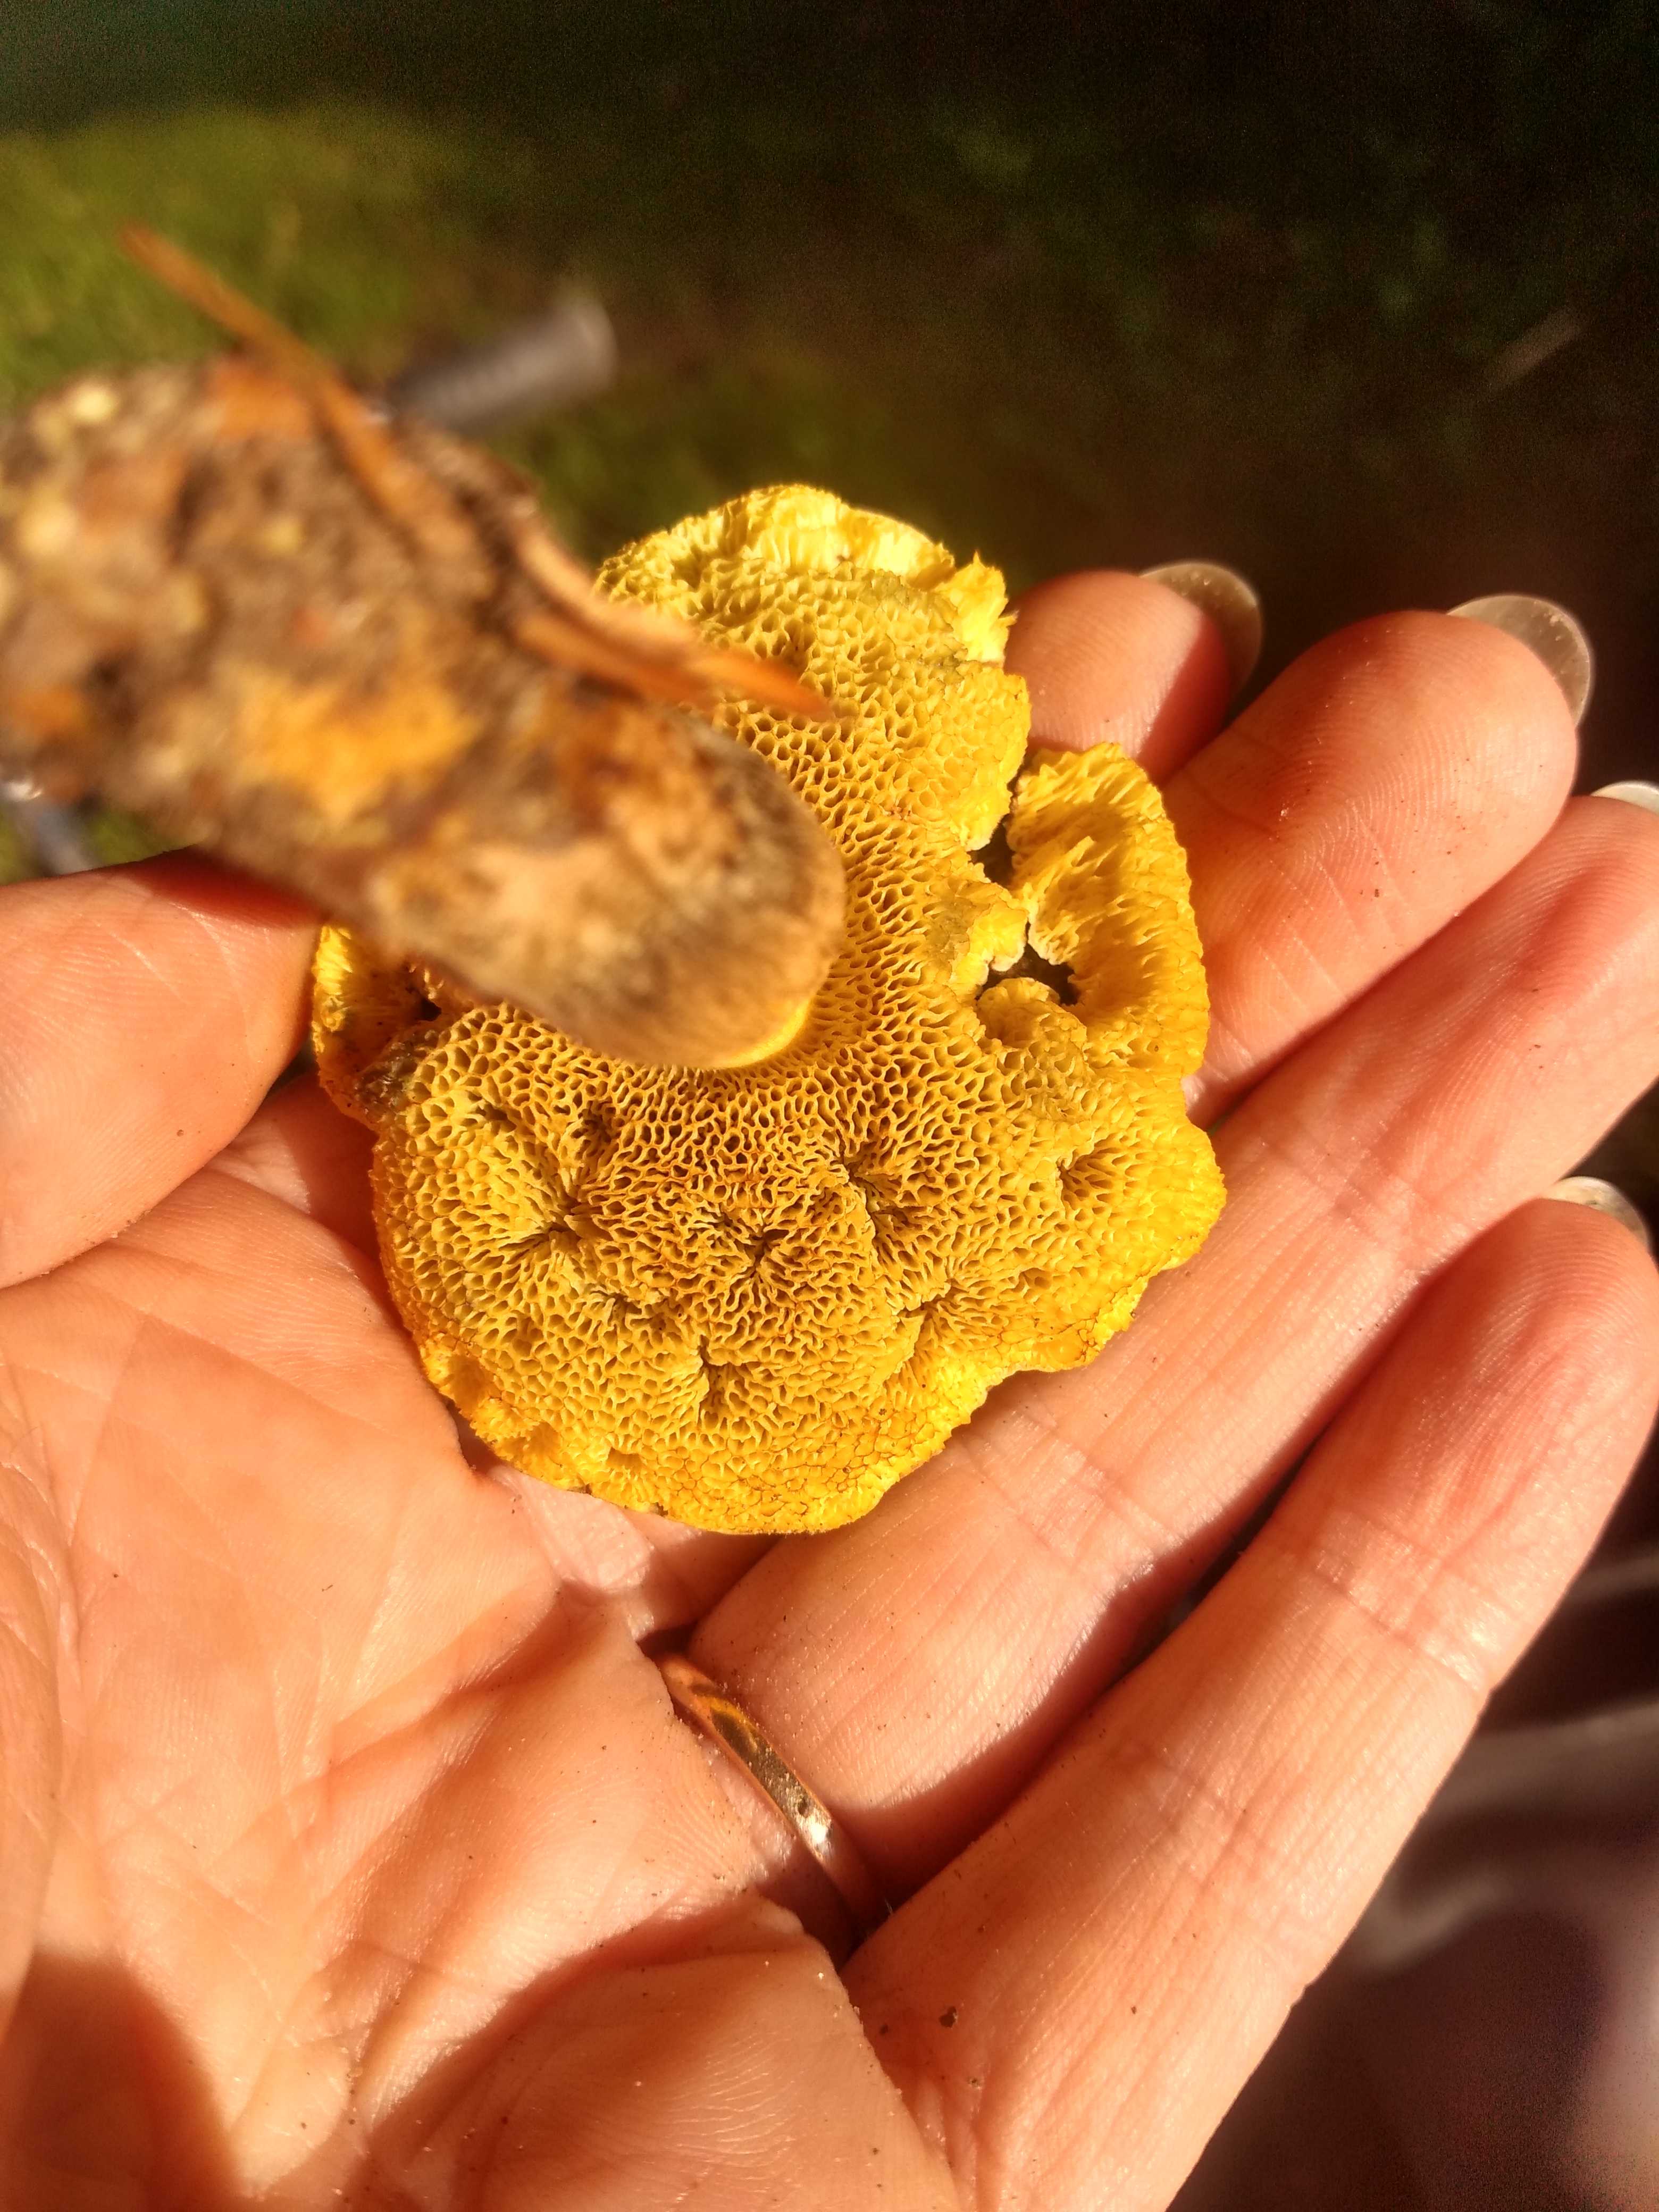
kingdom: Fungi
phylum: Basidiomycota
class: Agaricomycetes
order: Boletales
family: Boletaceae
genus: Xerocomus
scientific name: Xerocomus
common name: filtrørhat
